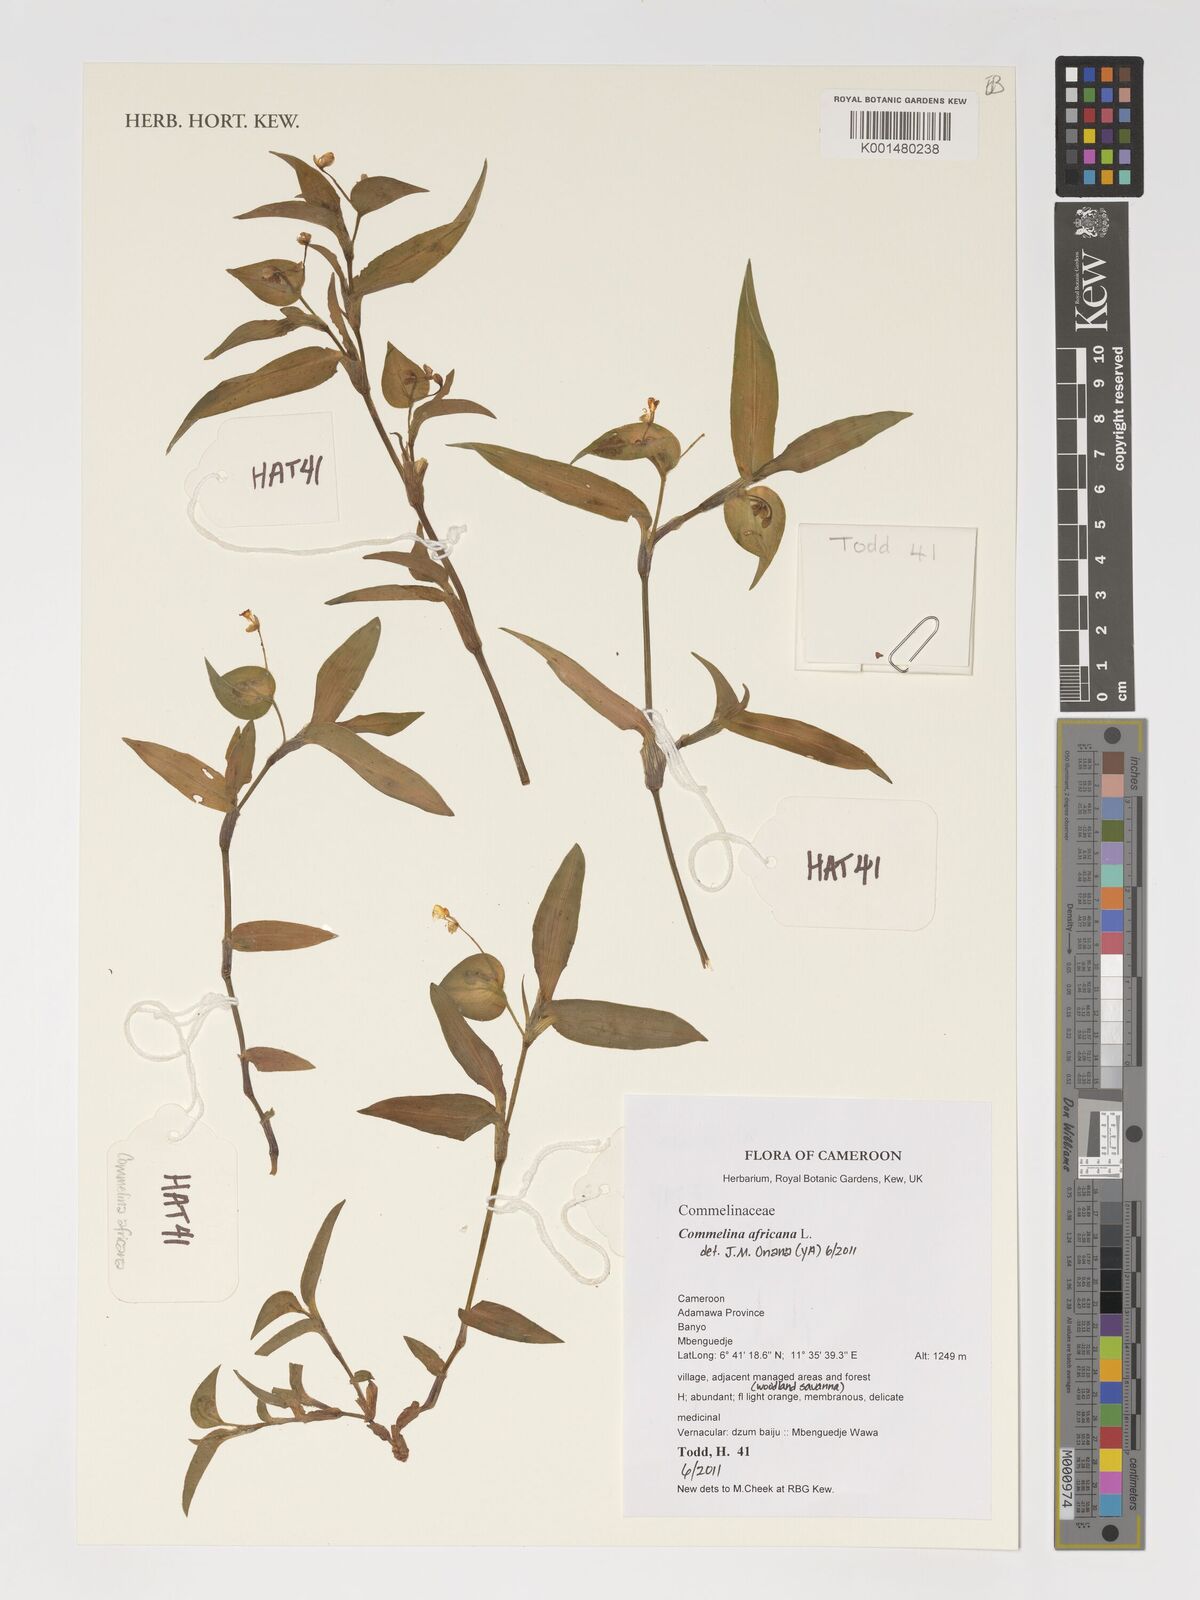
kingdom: Plantae
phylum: Tracheophyta
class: Liliopsida
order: Commelinales
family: Commelinaceae
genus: Commelina
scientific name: Commelina africana
